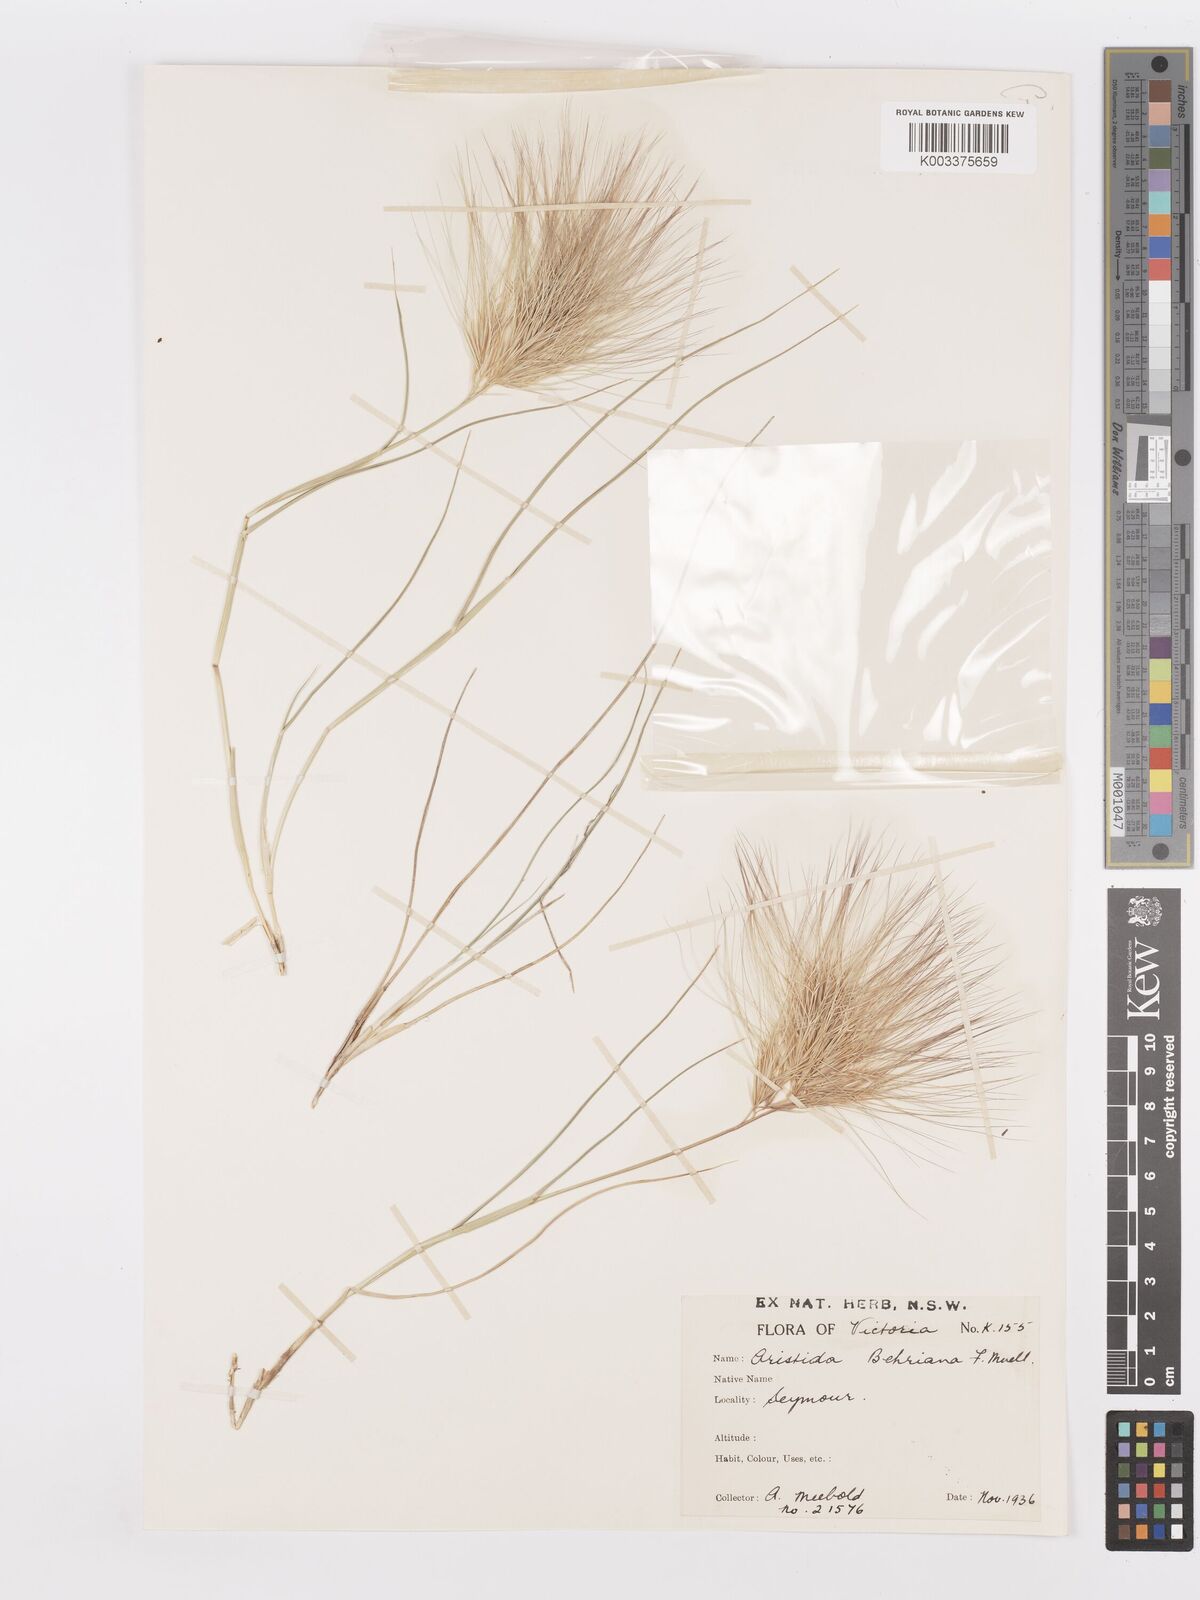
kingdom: Plantae
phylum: Tracheophyta
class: Liliopsida
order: Poales
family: Poaceae
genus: Aristida
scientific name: Aristida behriana
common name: Long-awn wire grass
